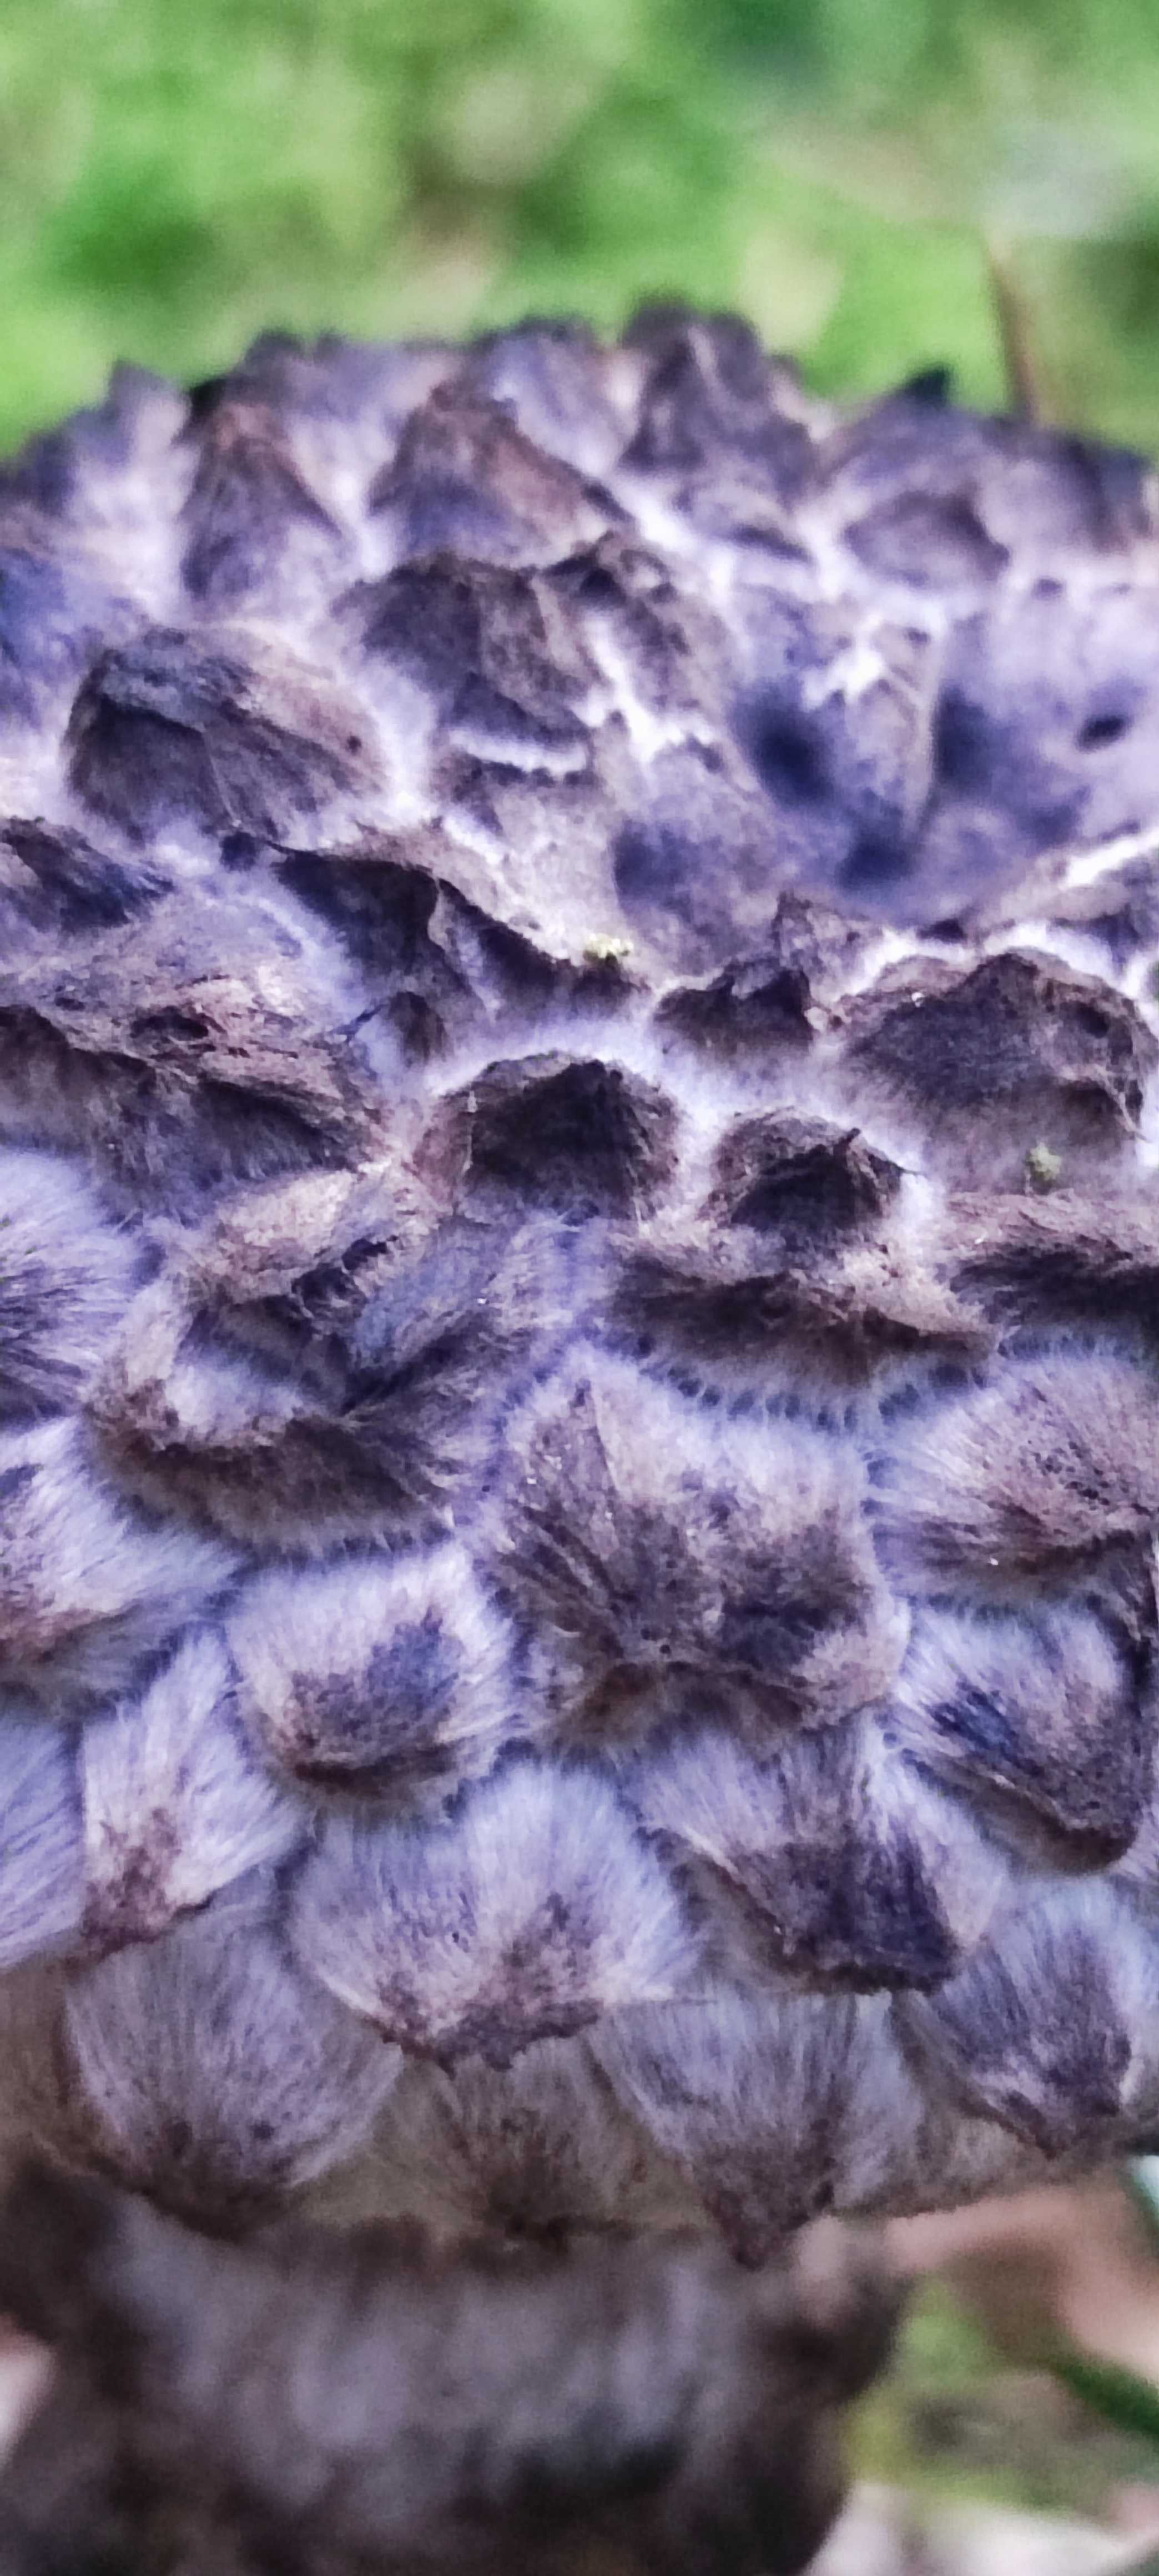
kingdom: Fungi
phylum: Basidiomycota
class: Agaricomycetes
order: Boletales
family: Boletaceae
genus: Strobilomyces
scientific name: Strobilomyces strobilaceus
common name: koglerørhat
